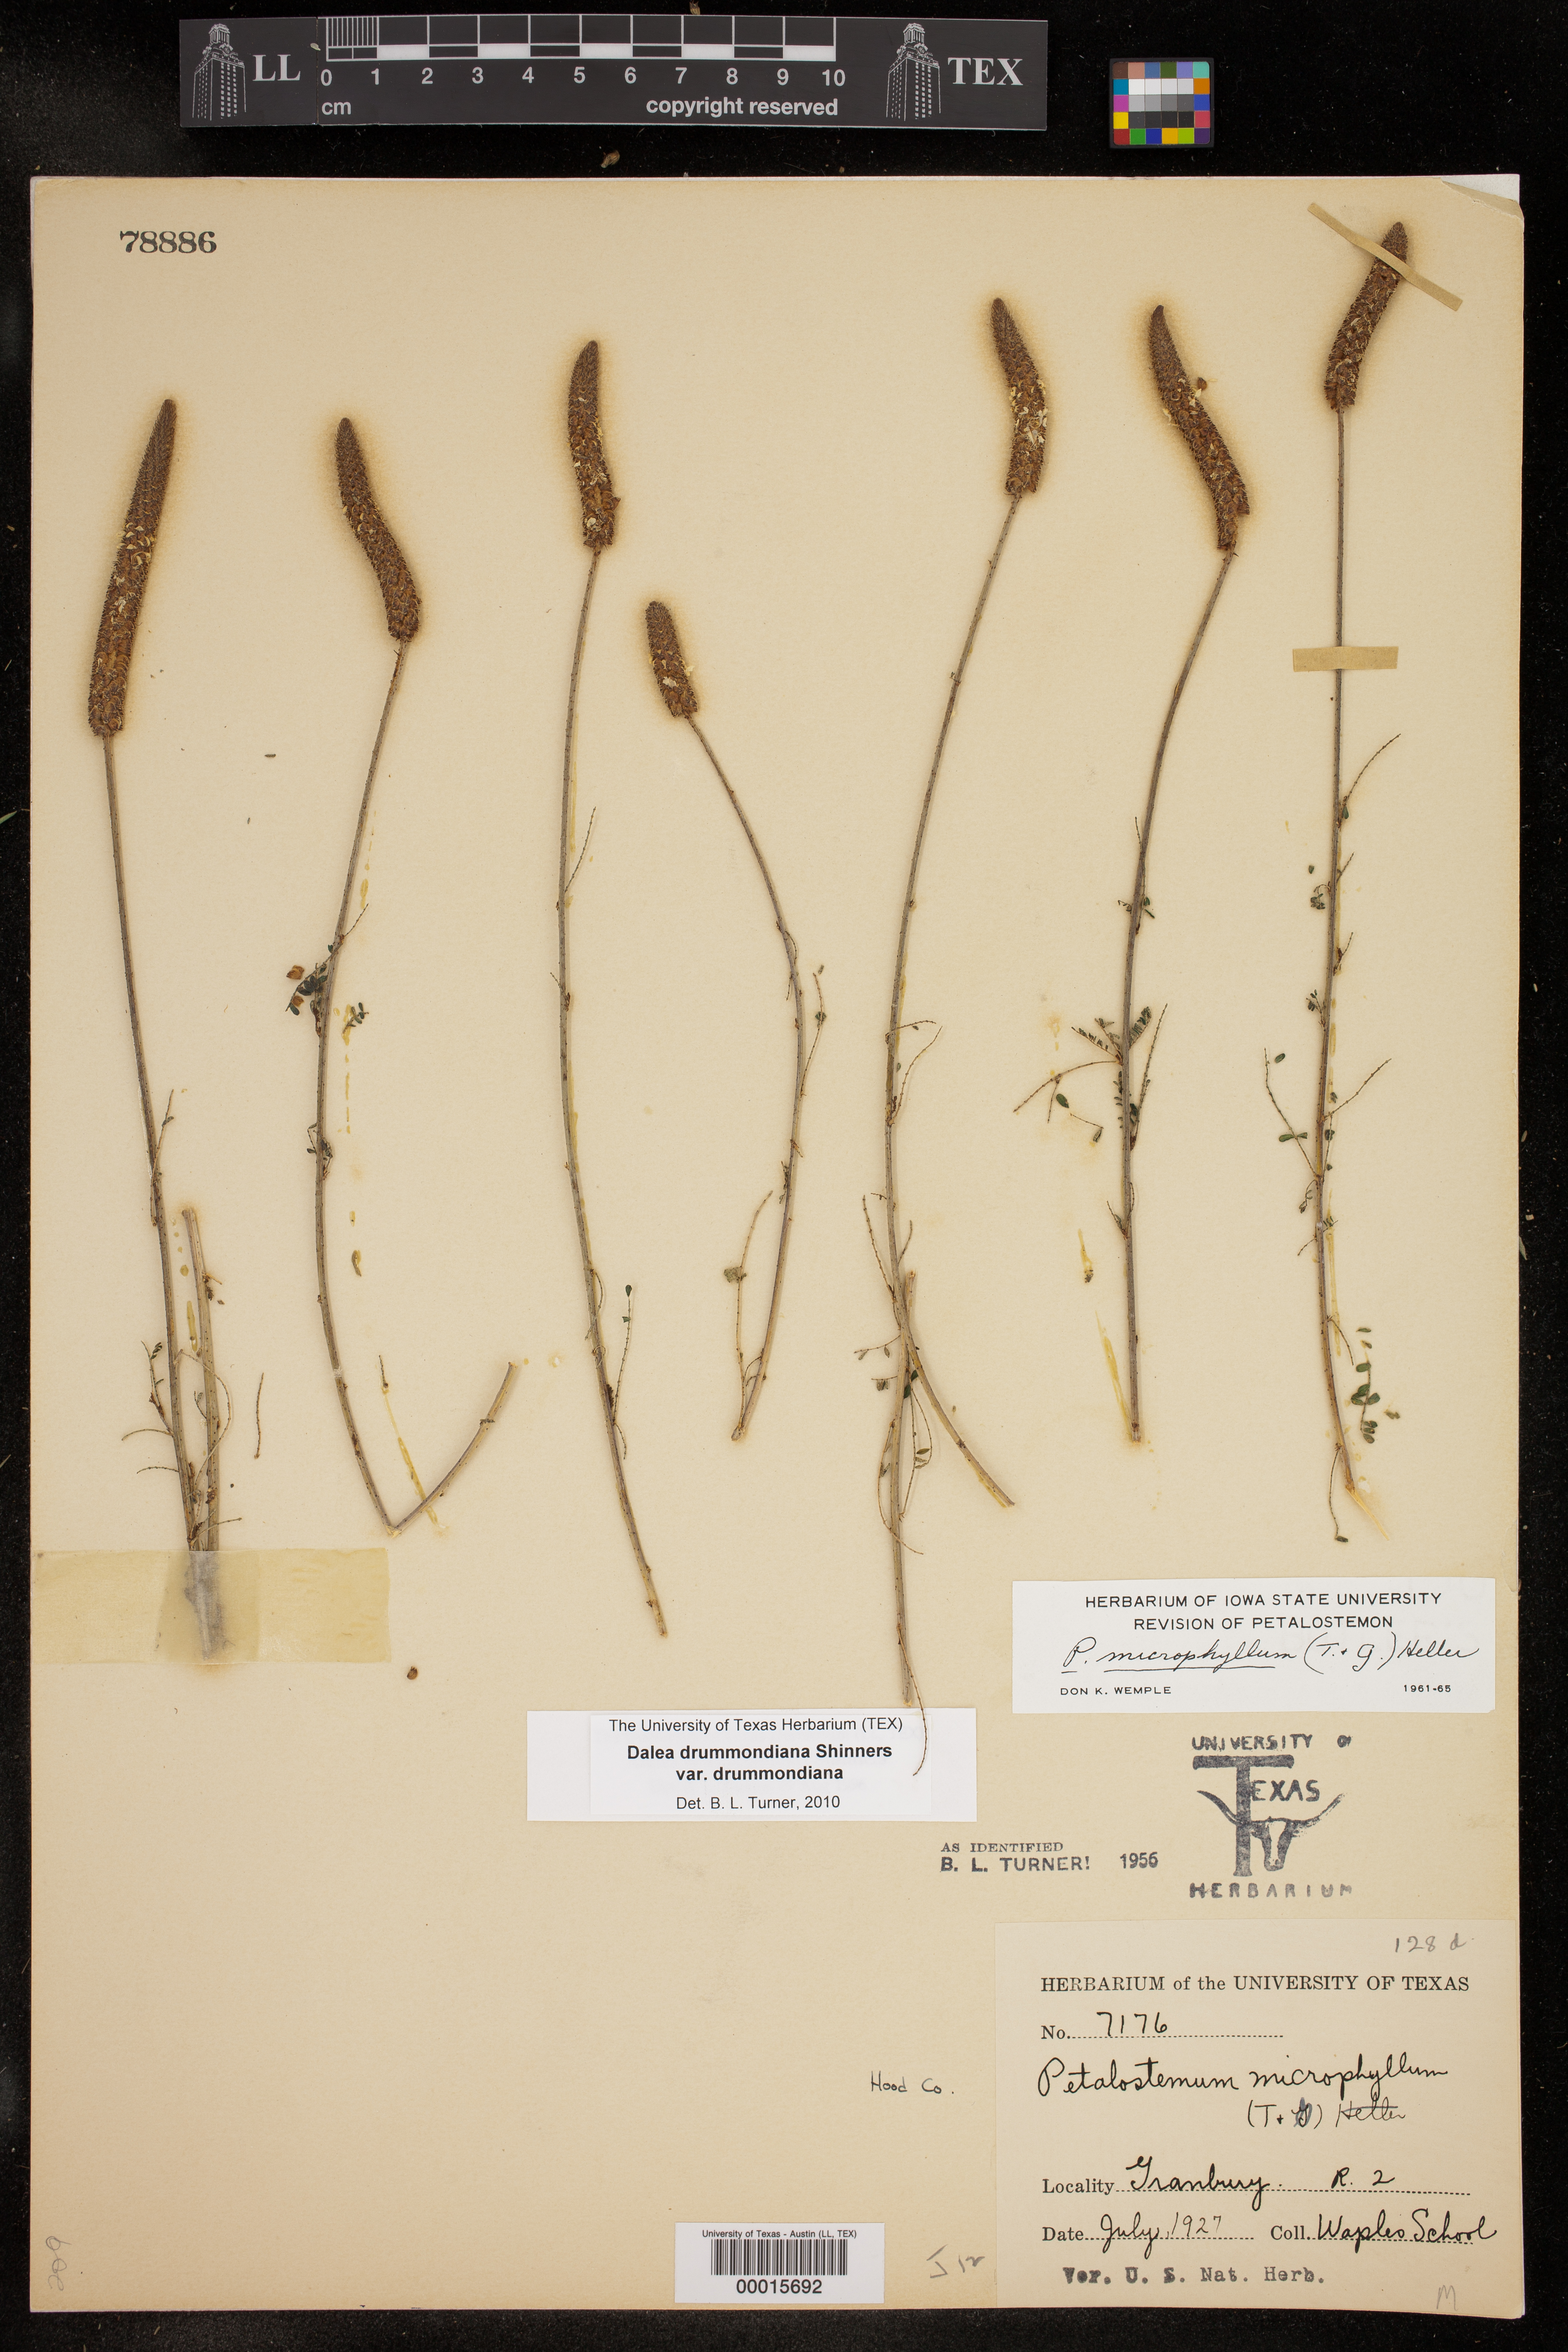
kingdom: Plantae
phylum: Tracheophyta
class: Magnoliopsida
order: Fabales
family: Fabaceae
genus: Dalea
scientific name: Dalea drummondiana
